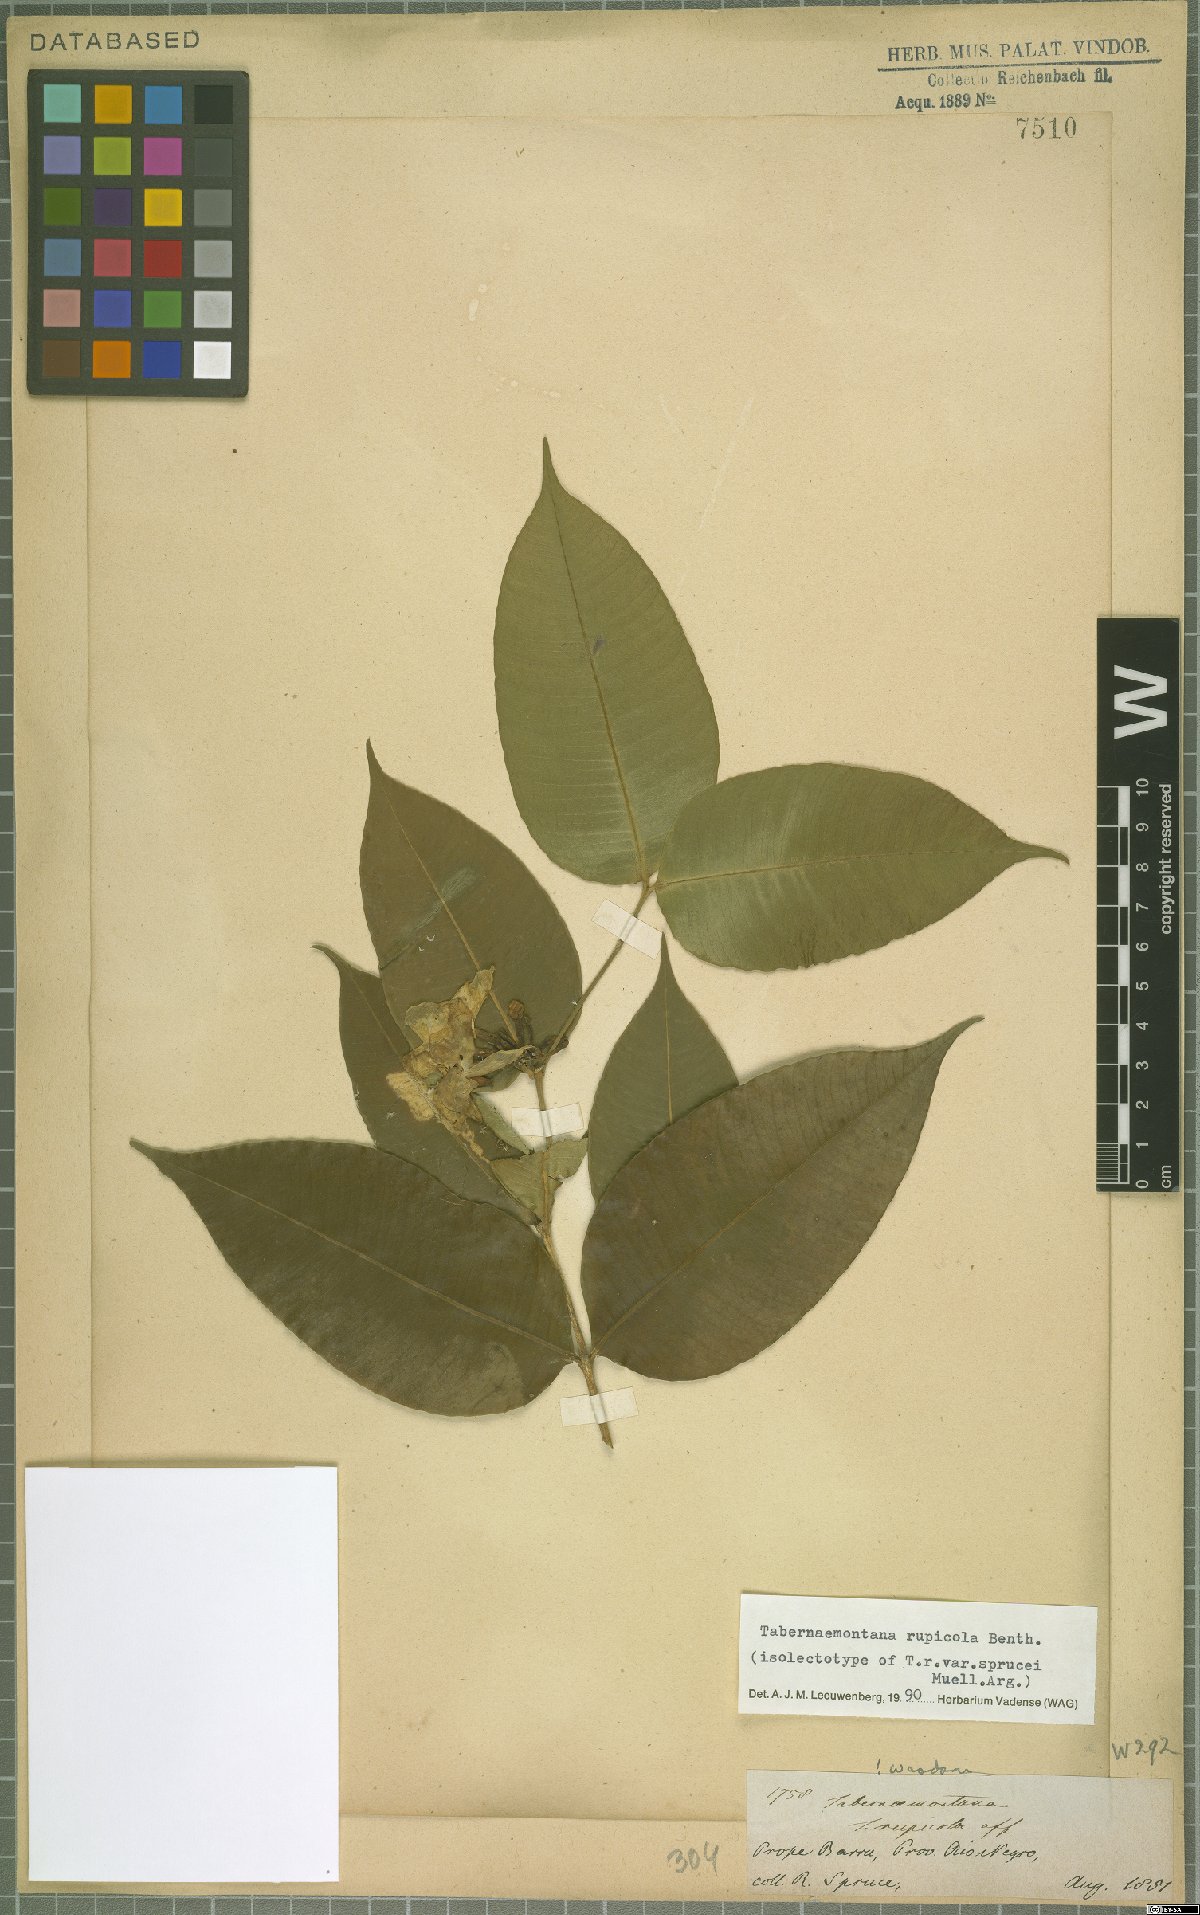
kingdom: Plantae
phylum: Tracheophyta
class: Magnoliopsida
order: Gentianales
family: Apocynaceae
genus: Tabernaemontana
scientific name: Tabernaemontana rupicola
